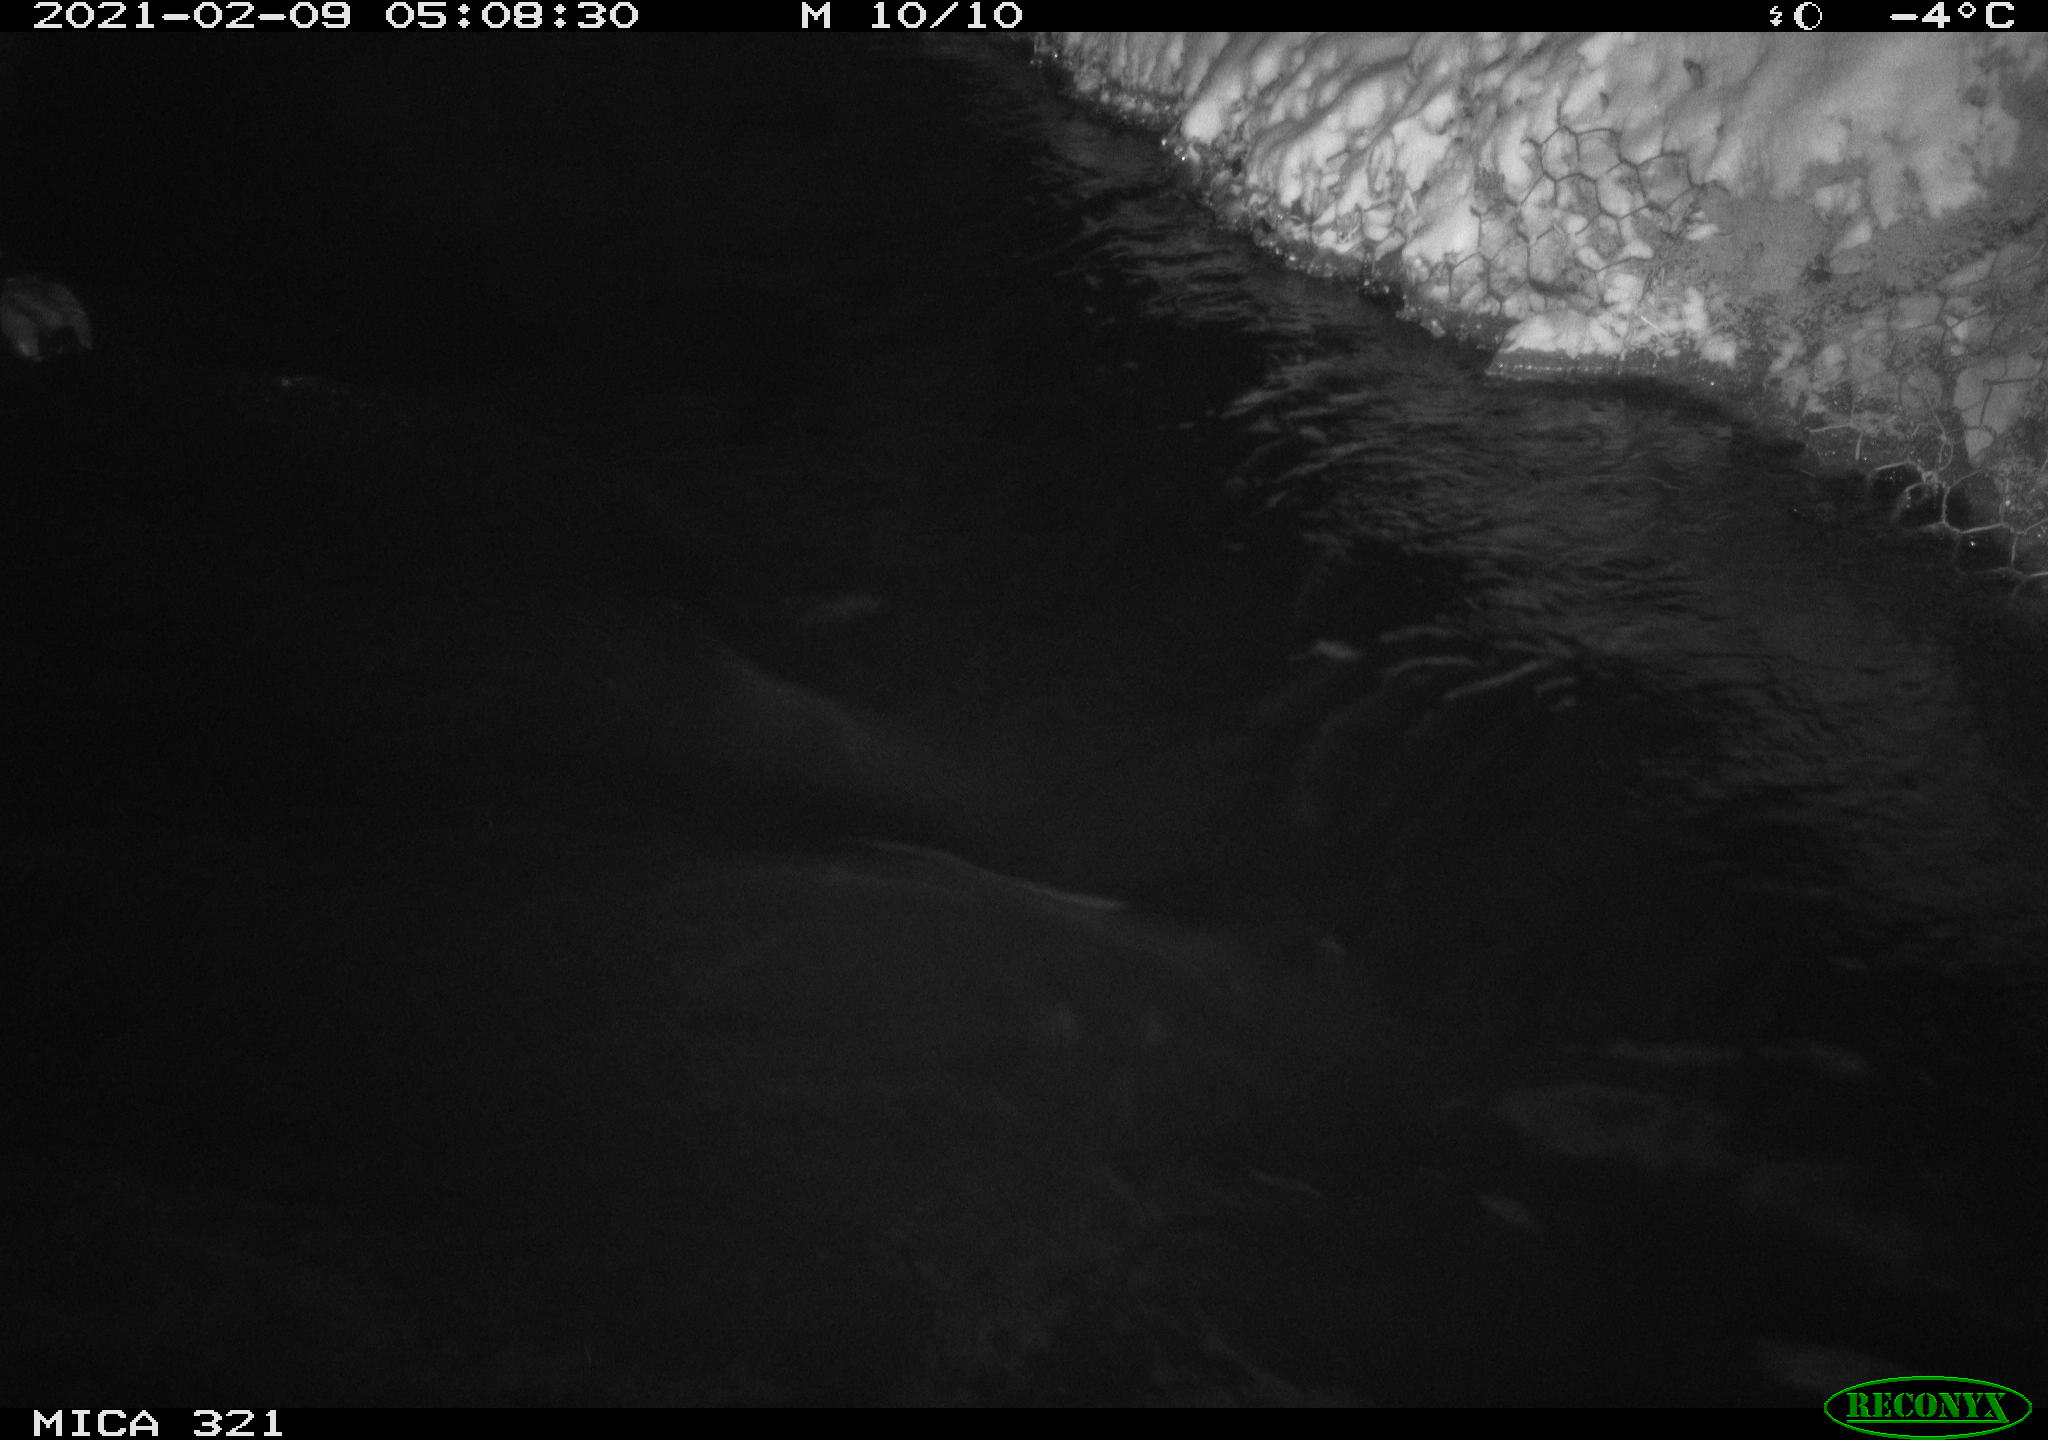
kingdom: Animalia
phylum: Chordata
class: Aves
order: Anseriformes
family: Anatidae
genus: Anas
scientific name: Anas platyrhynchos
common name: Mallard
